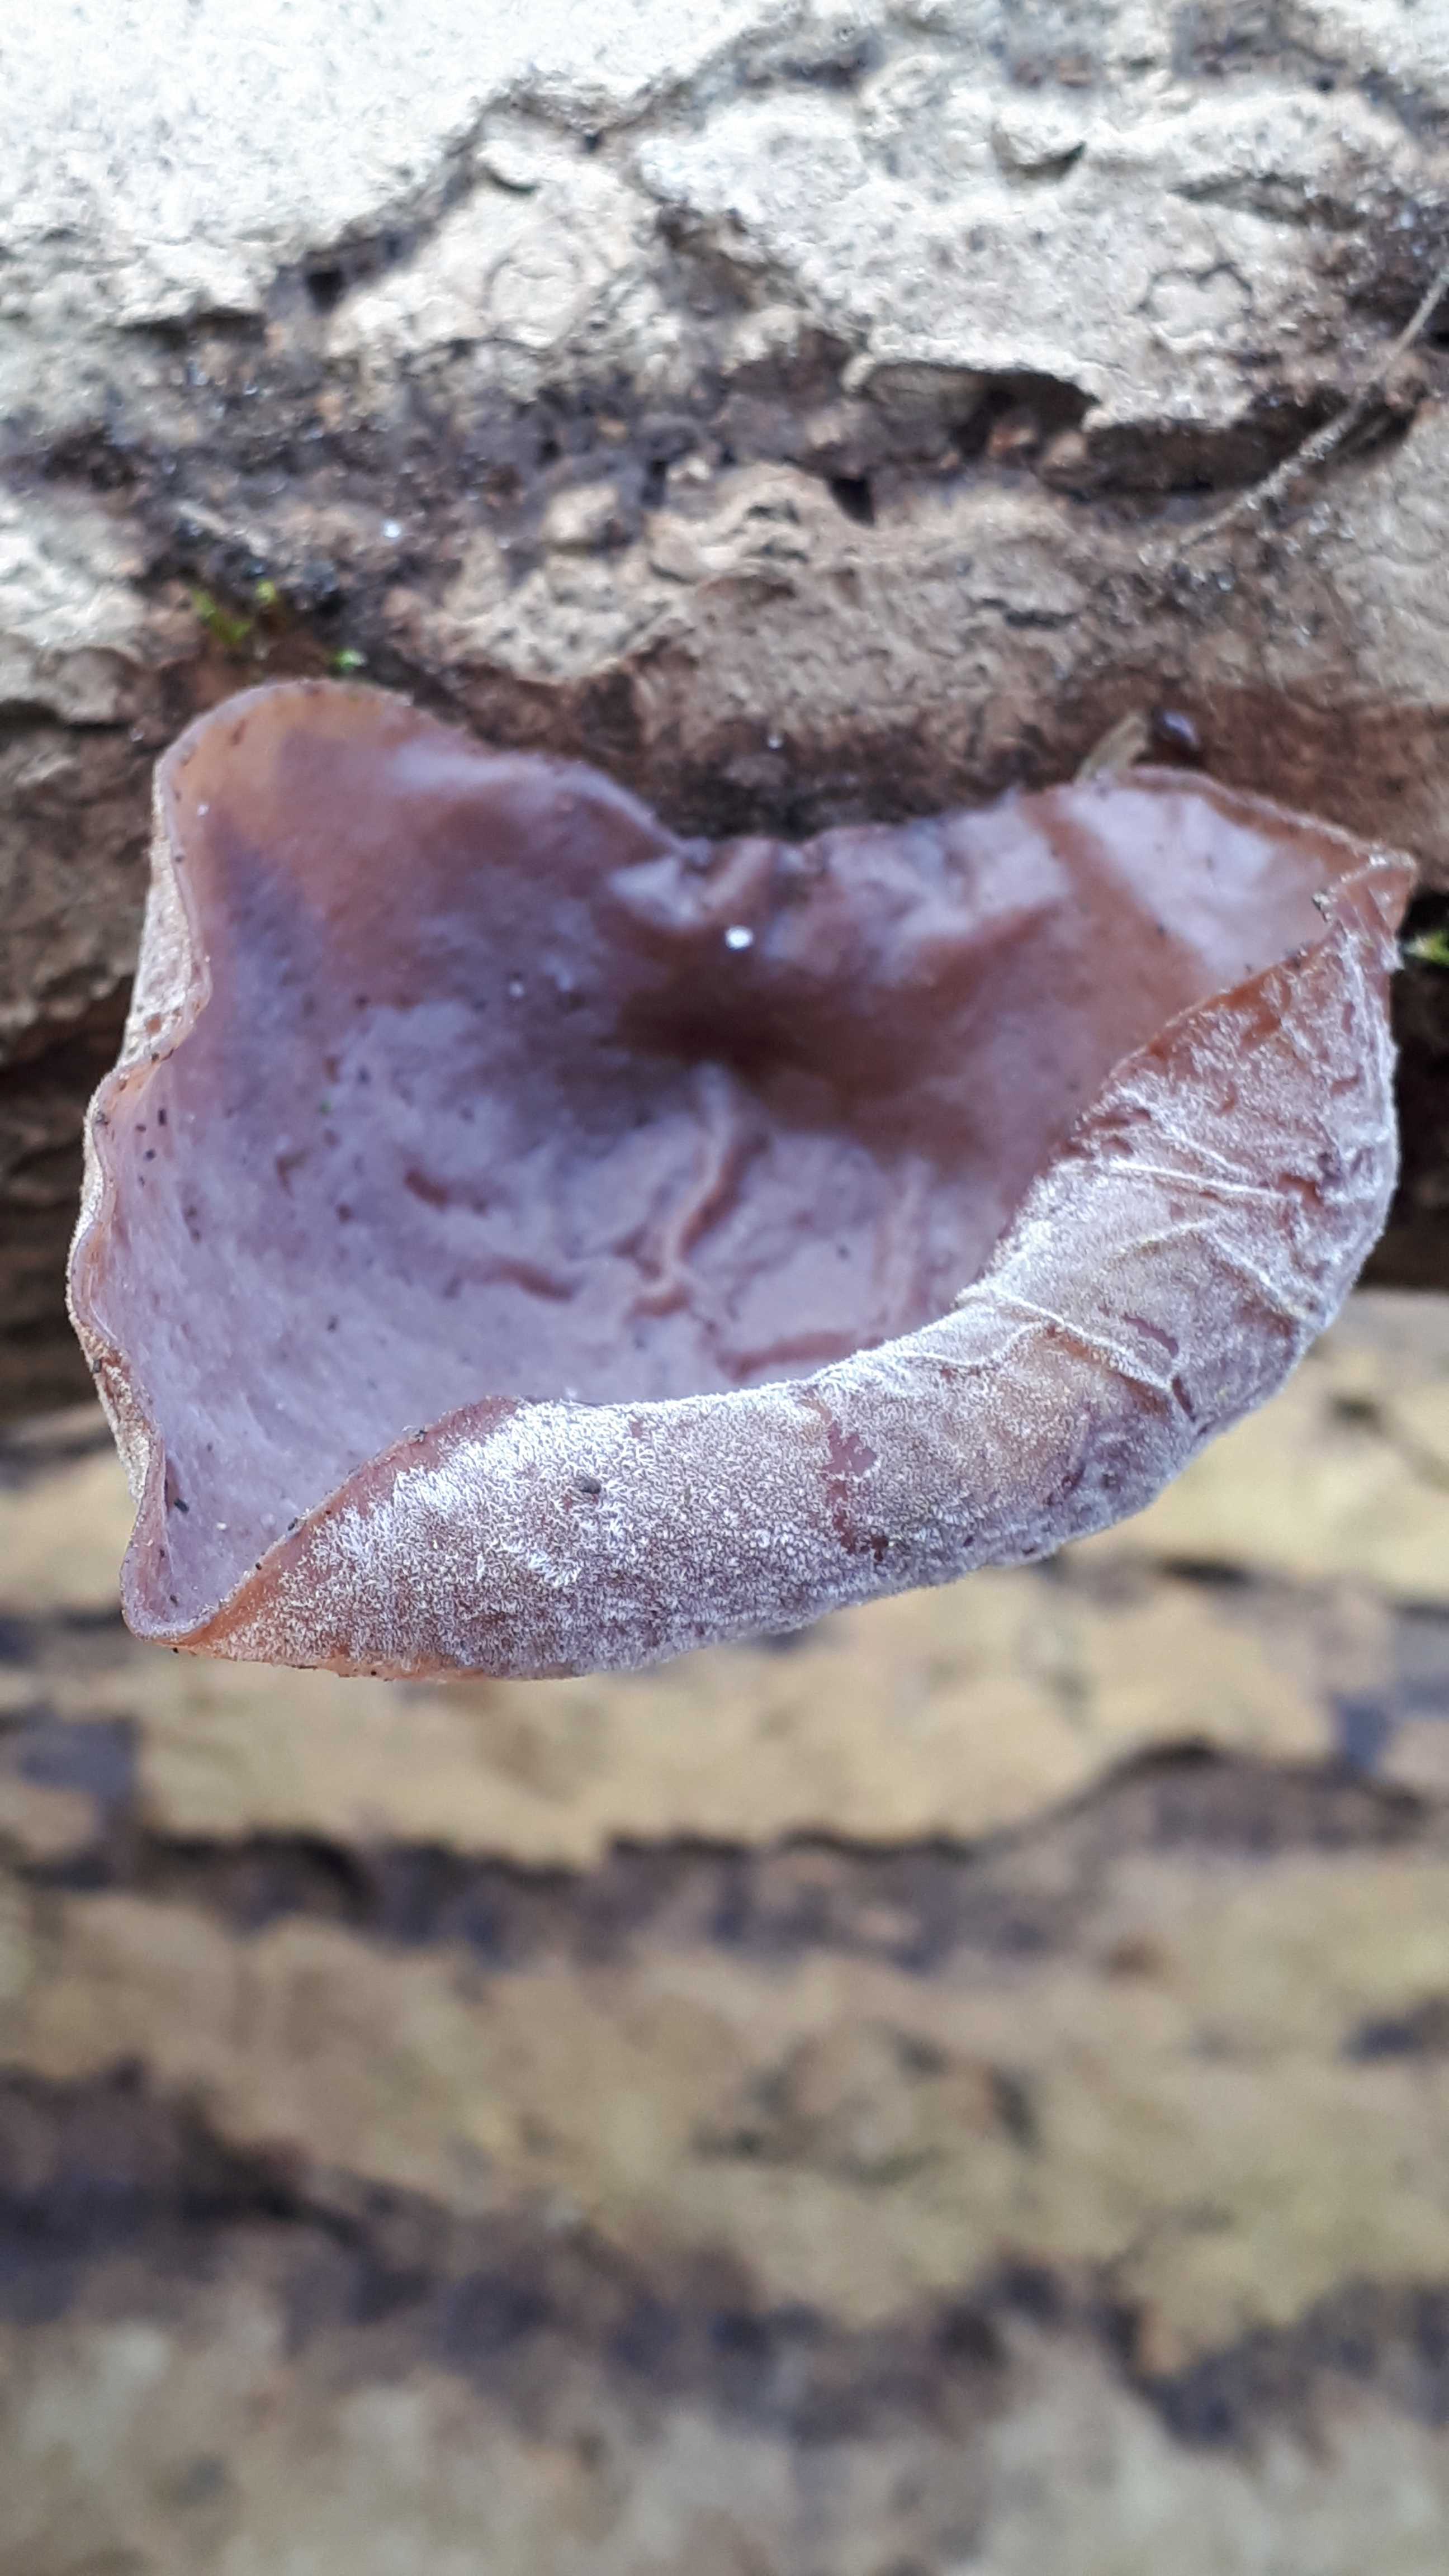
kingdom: Fungi
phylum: Basidiomycota
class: Agaricomycetes
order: Auriculariales
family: Auriculariaceae
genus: Auricularia
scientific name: Auricularia auricula-judae
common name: almindelig judasøre
